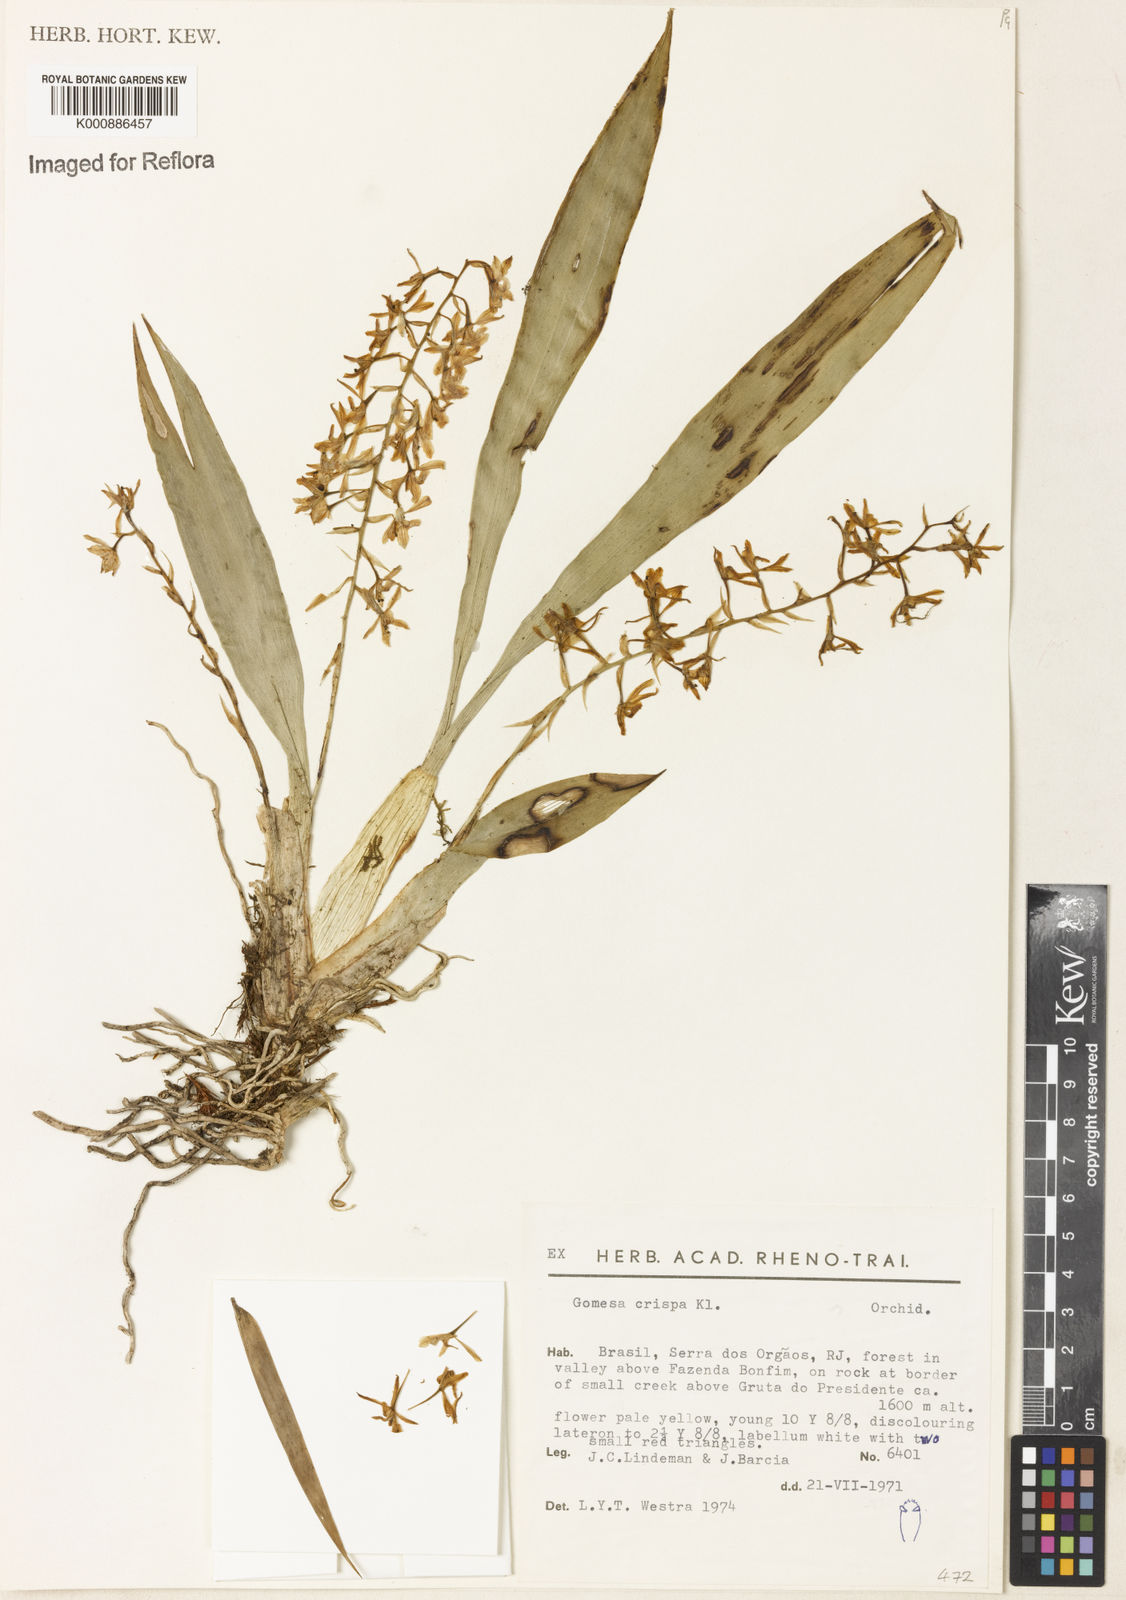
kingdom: Plantae
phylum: Tracheophyta
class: Liliopsida
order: Asparagales
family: Orchidaceae
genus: Gomesa
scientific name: Gomesa crispa
